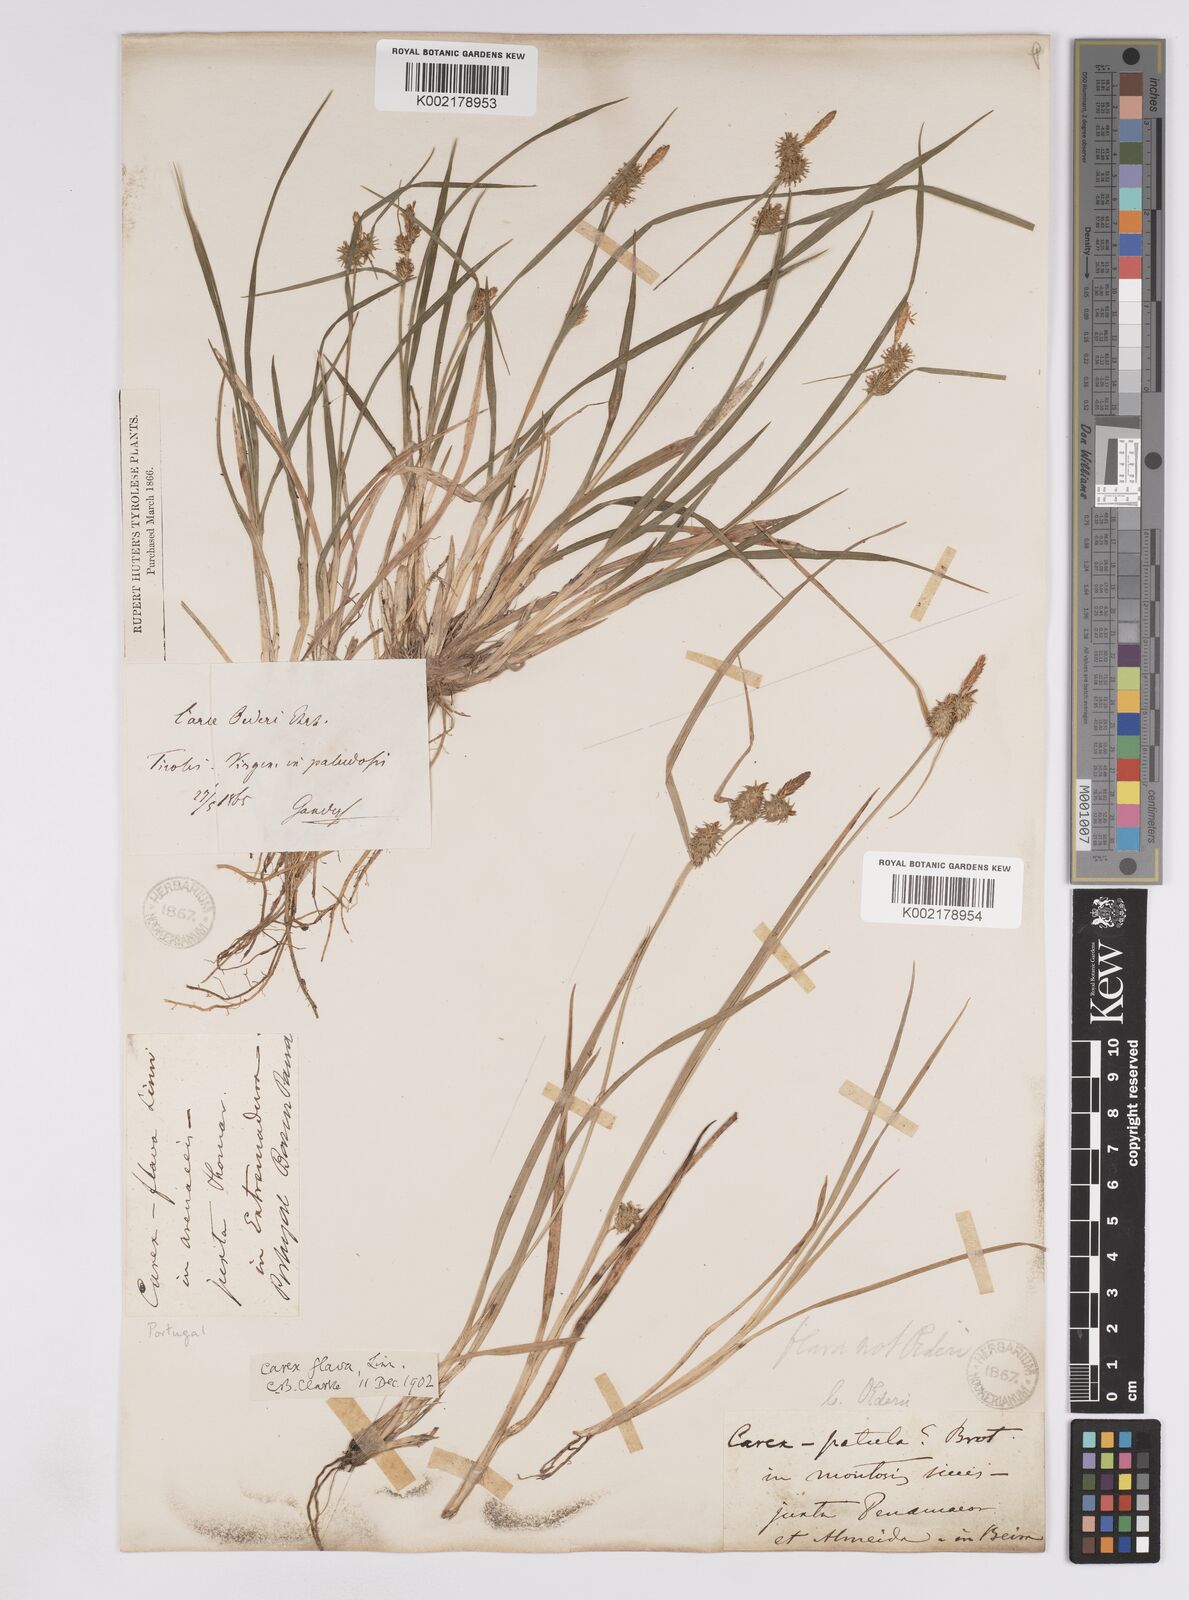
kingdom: Plantae
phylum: Tracheophyta
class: Liliopsida
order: Poales
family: Cyperaceae
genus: Carex
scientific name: Carex lepidocarpa
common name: Long-stalked yellow-sedge
